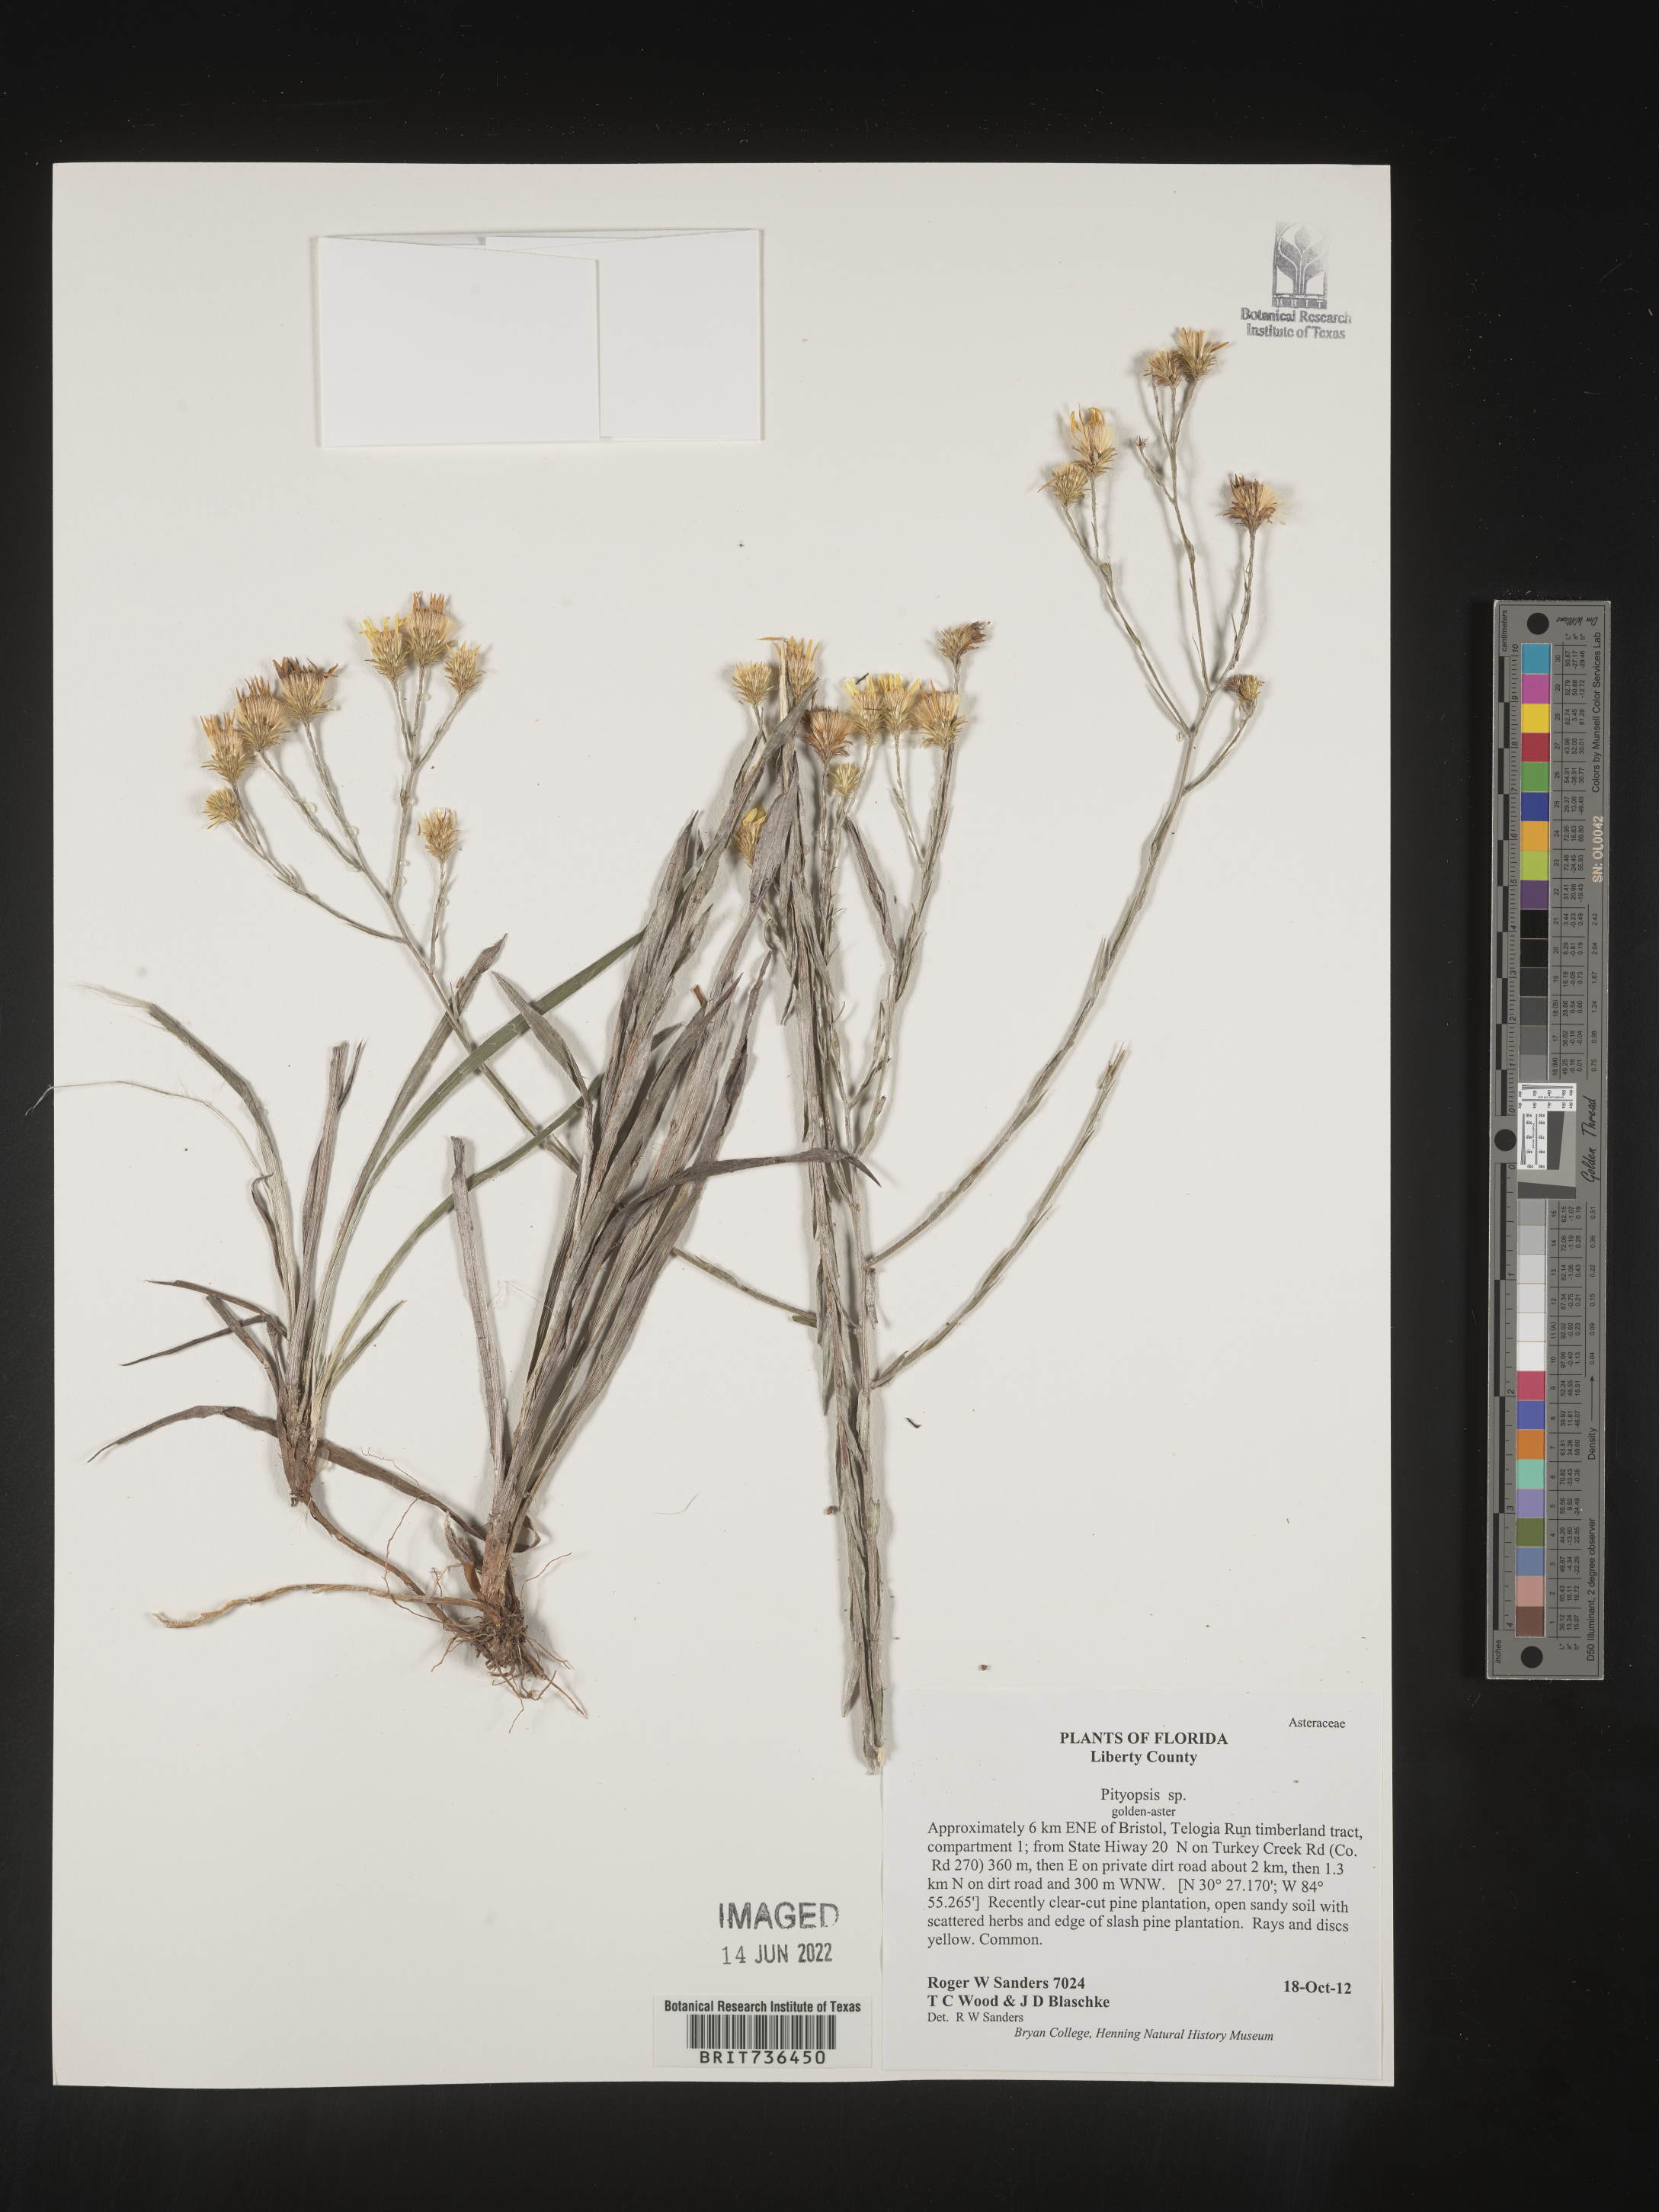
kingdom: Plantae
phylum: Tracheophyta
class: Magnoliopsida
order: Asterales
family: Asteraceae
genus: Pityopsis
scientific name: Pityopsis
